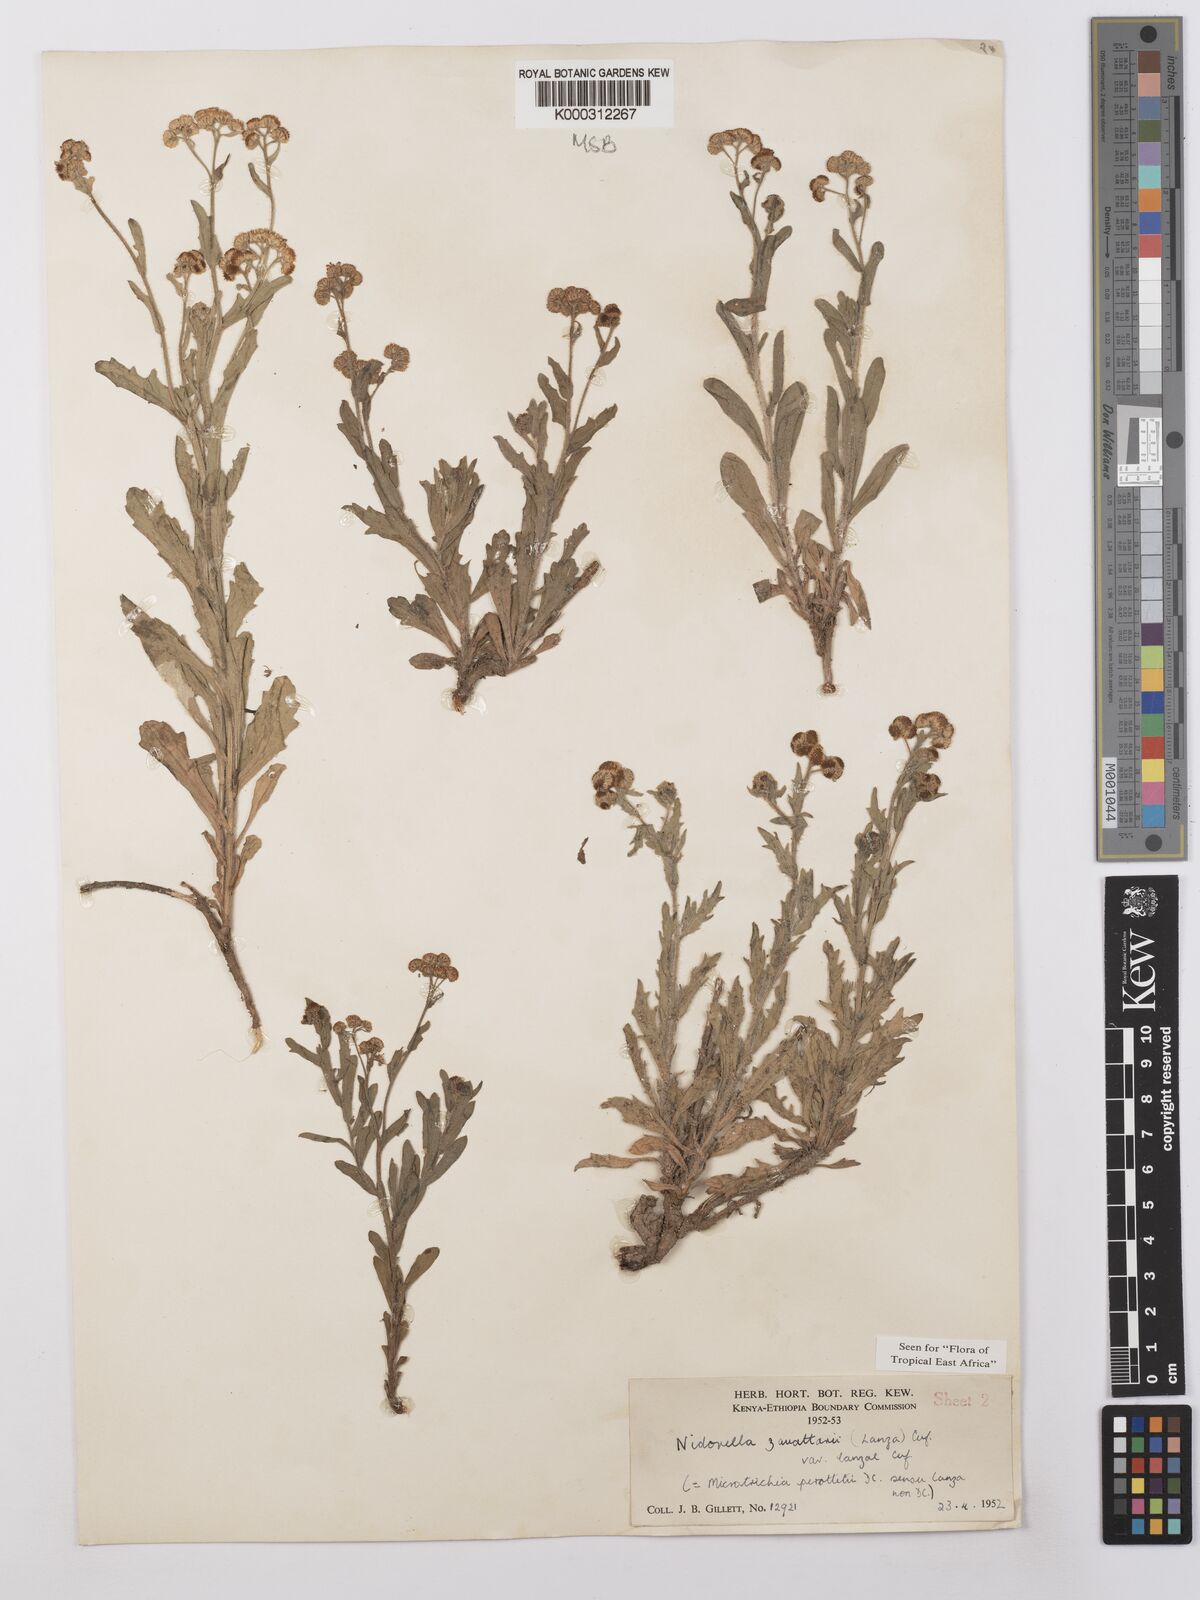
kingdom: Plantae
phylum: Tracheophyta
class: Magnoliopsida
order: Asterales
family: Asteraceae
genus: Nidorella
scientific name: Nidorella zavattarii
